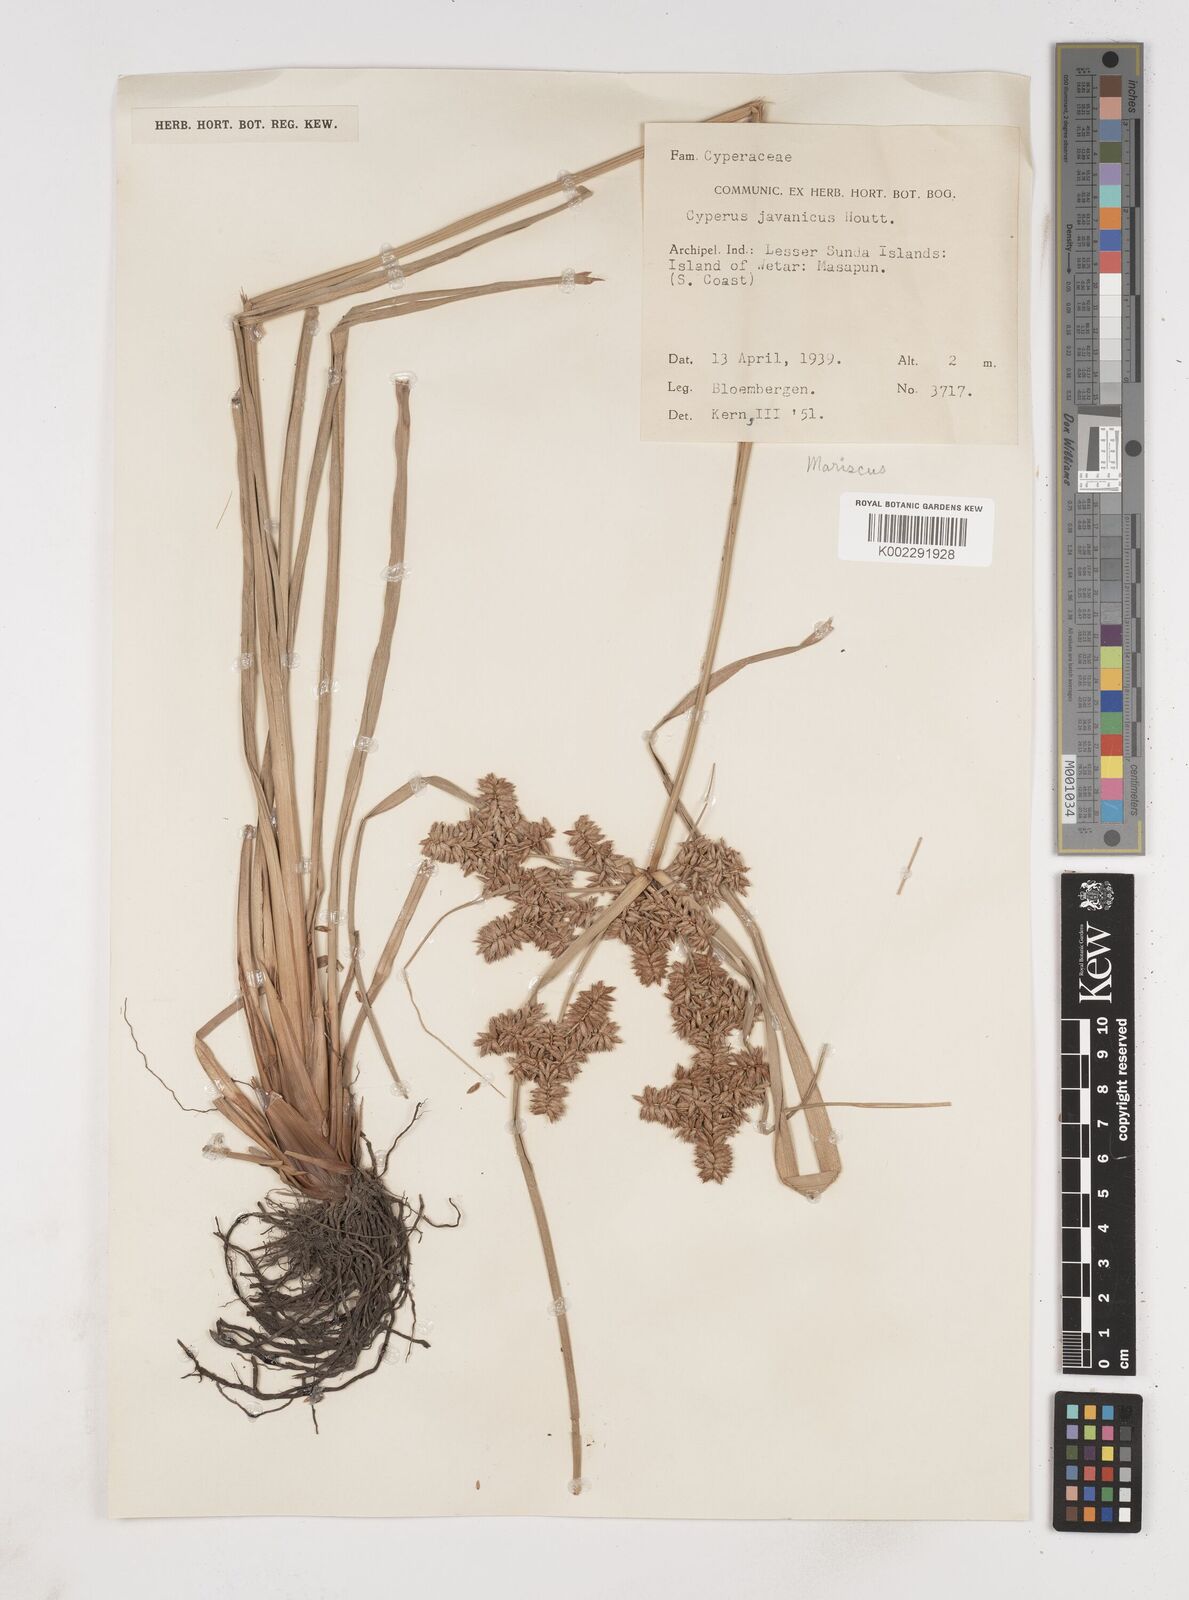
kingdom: Plantae
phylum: Tracheophyta
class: Liliopsida
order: Poales
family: Cyperaceae
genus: Cyperus
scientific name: Cyperus javanicus
